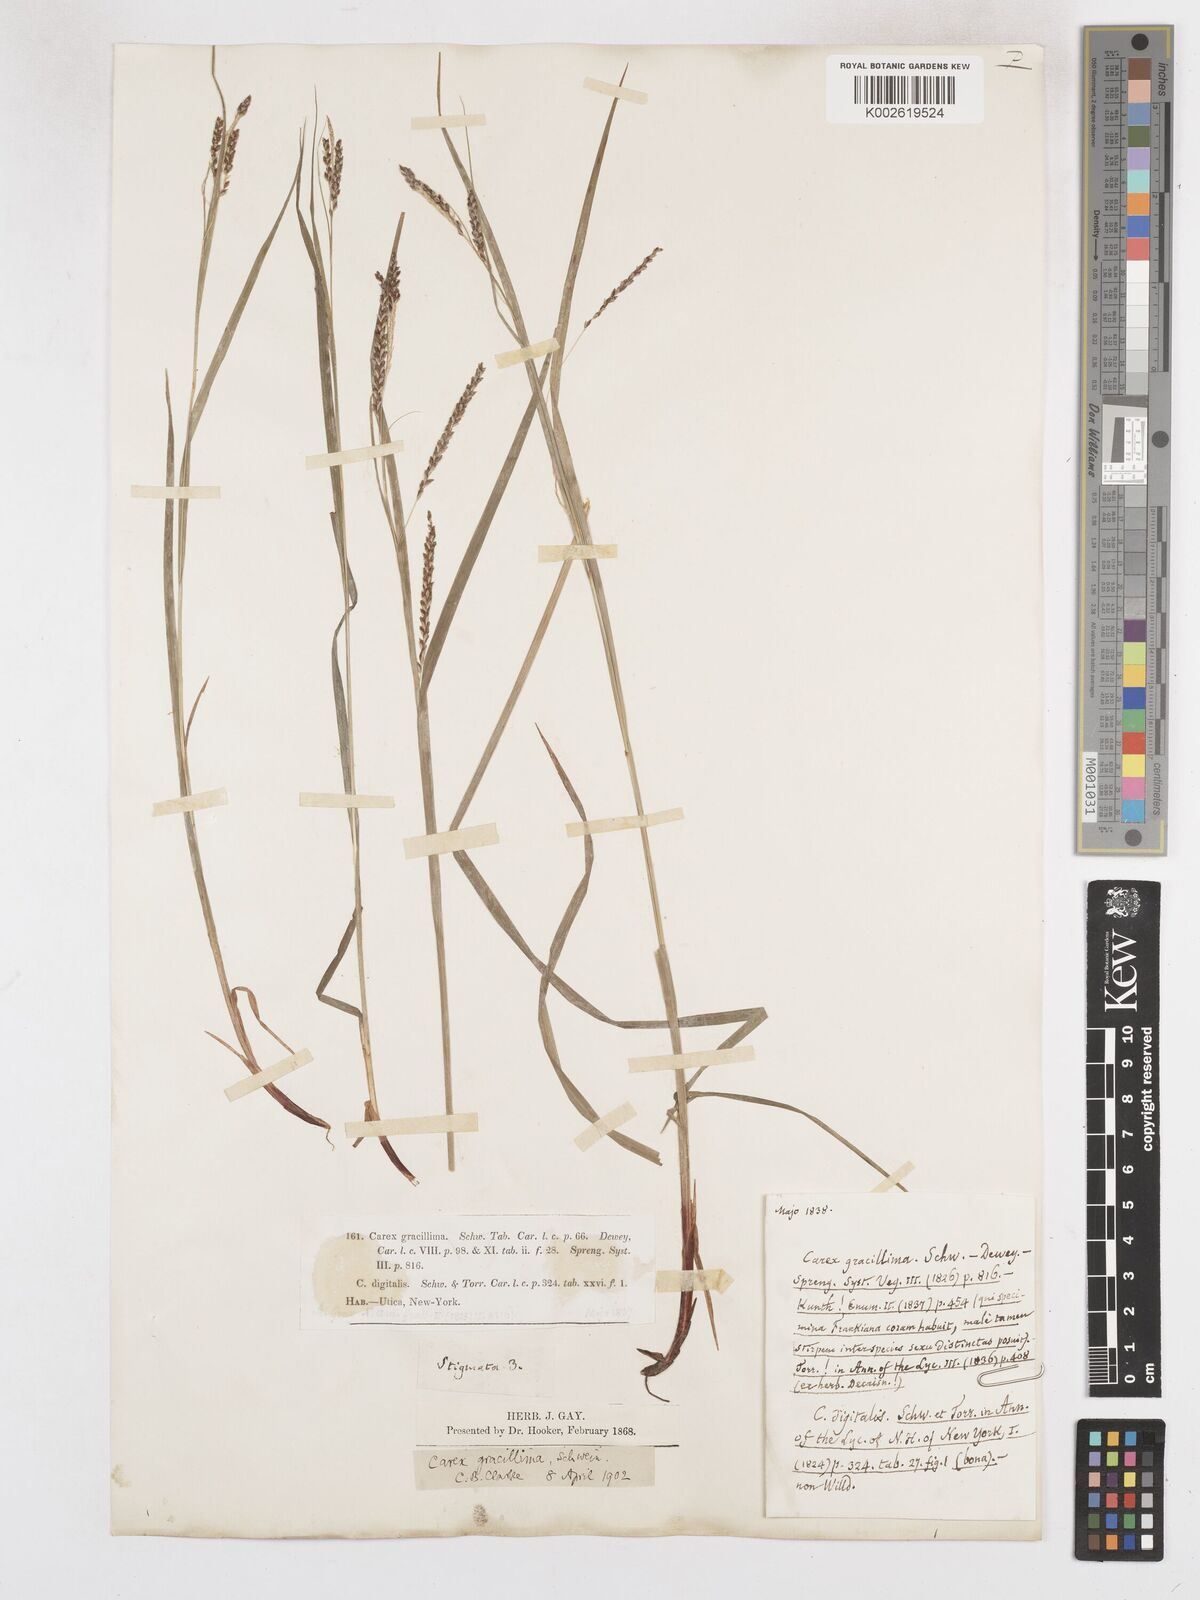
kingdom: Plantae
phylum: Tracheophyta
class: Liliopsida
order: Poales
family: Cyperaceae
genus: Carex
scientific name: Carex gracillima
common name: Graceful sedge
